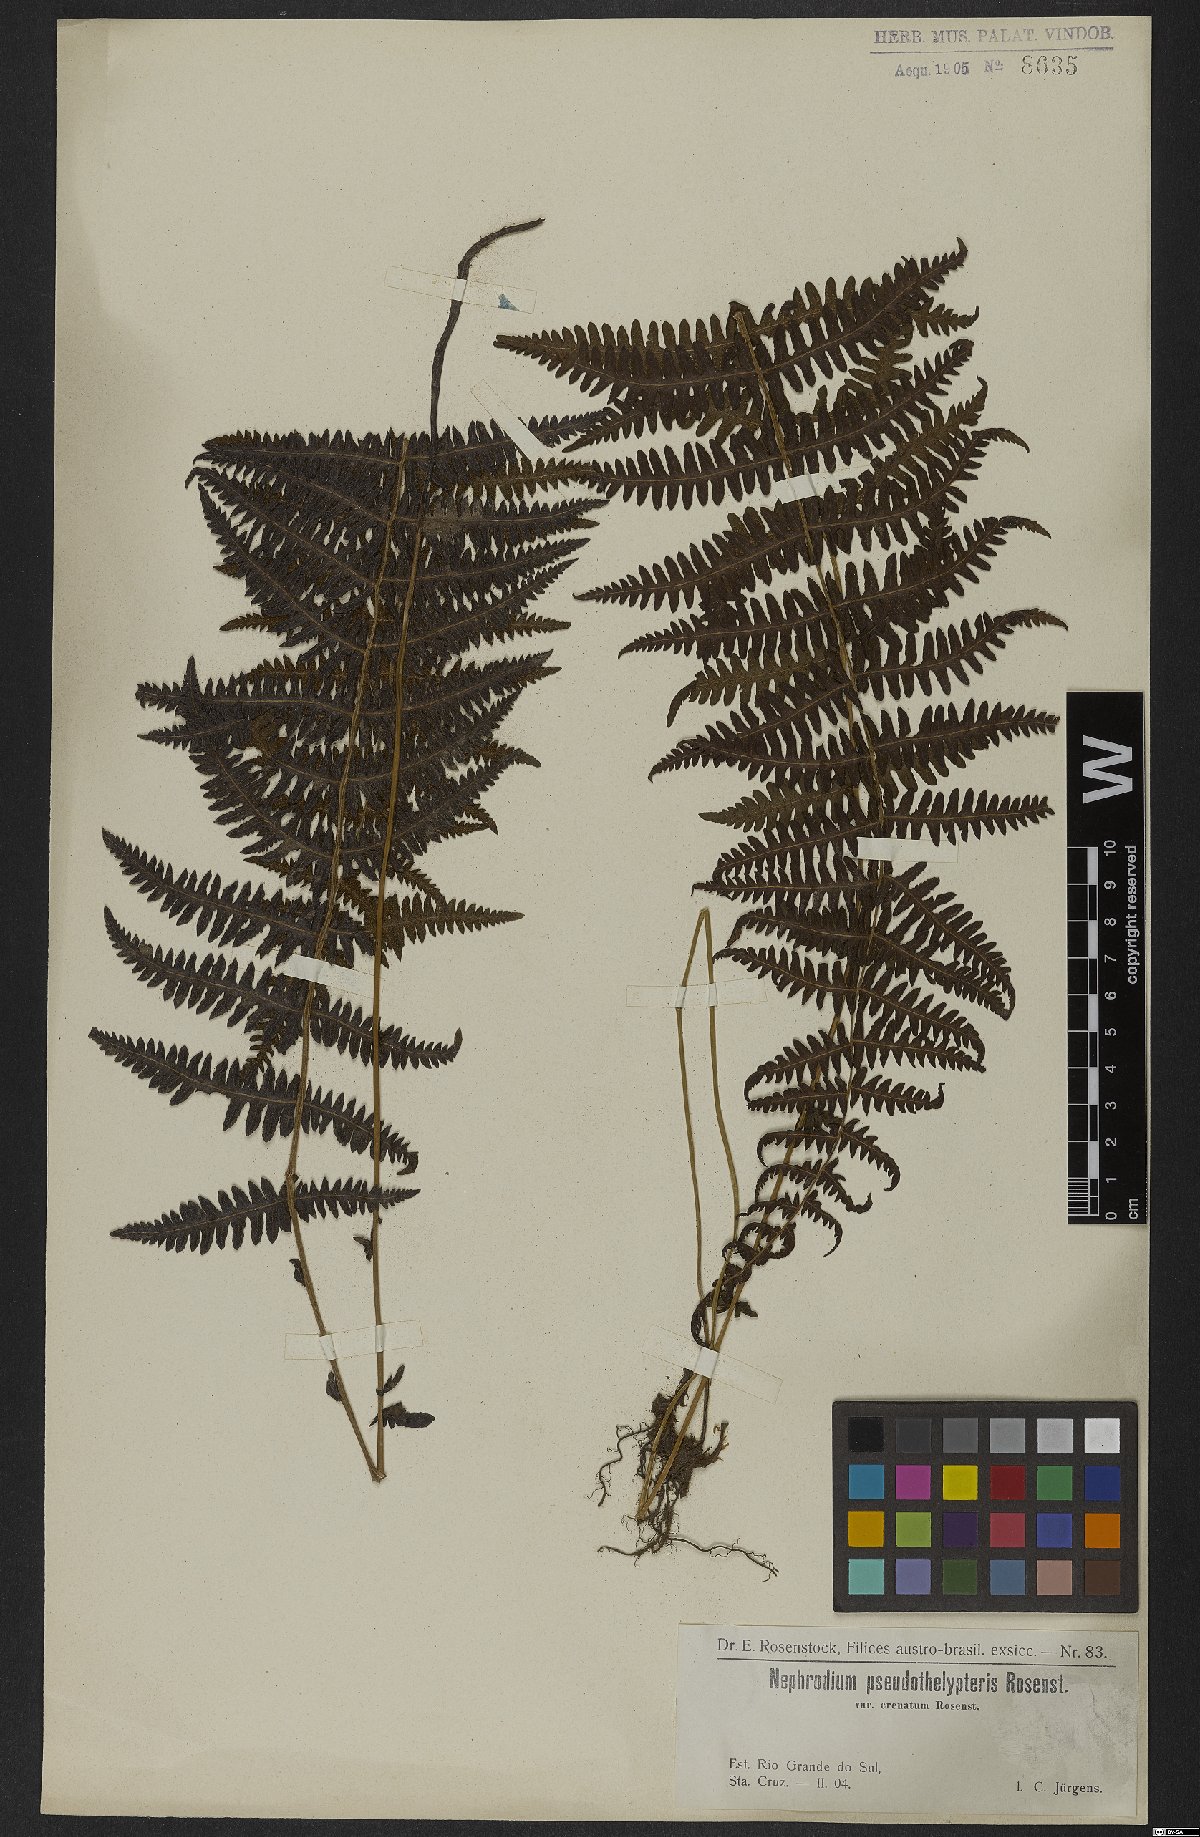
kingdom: Plantae
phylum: Tracheophyta
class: Polypodiopsida
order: Polypodiales
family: Dryopteridaceae
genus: Dryopteris
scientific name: Dryopteris
